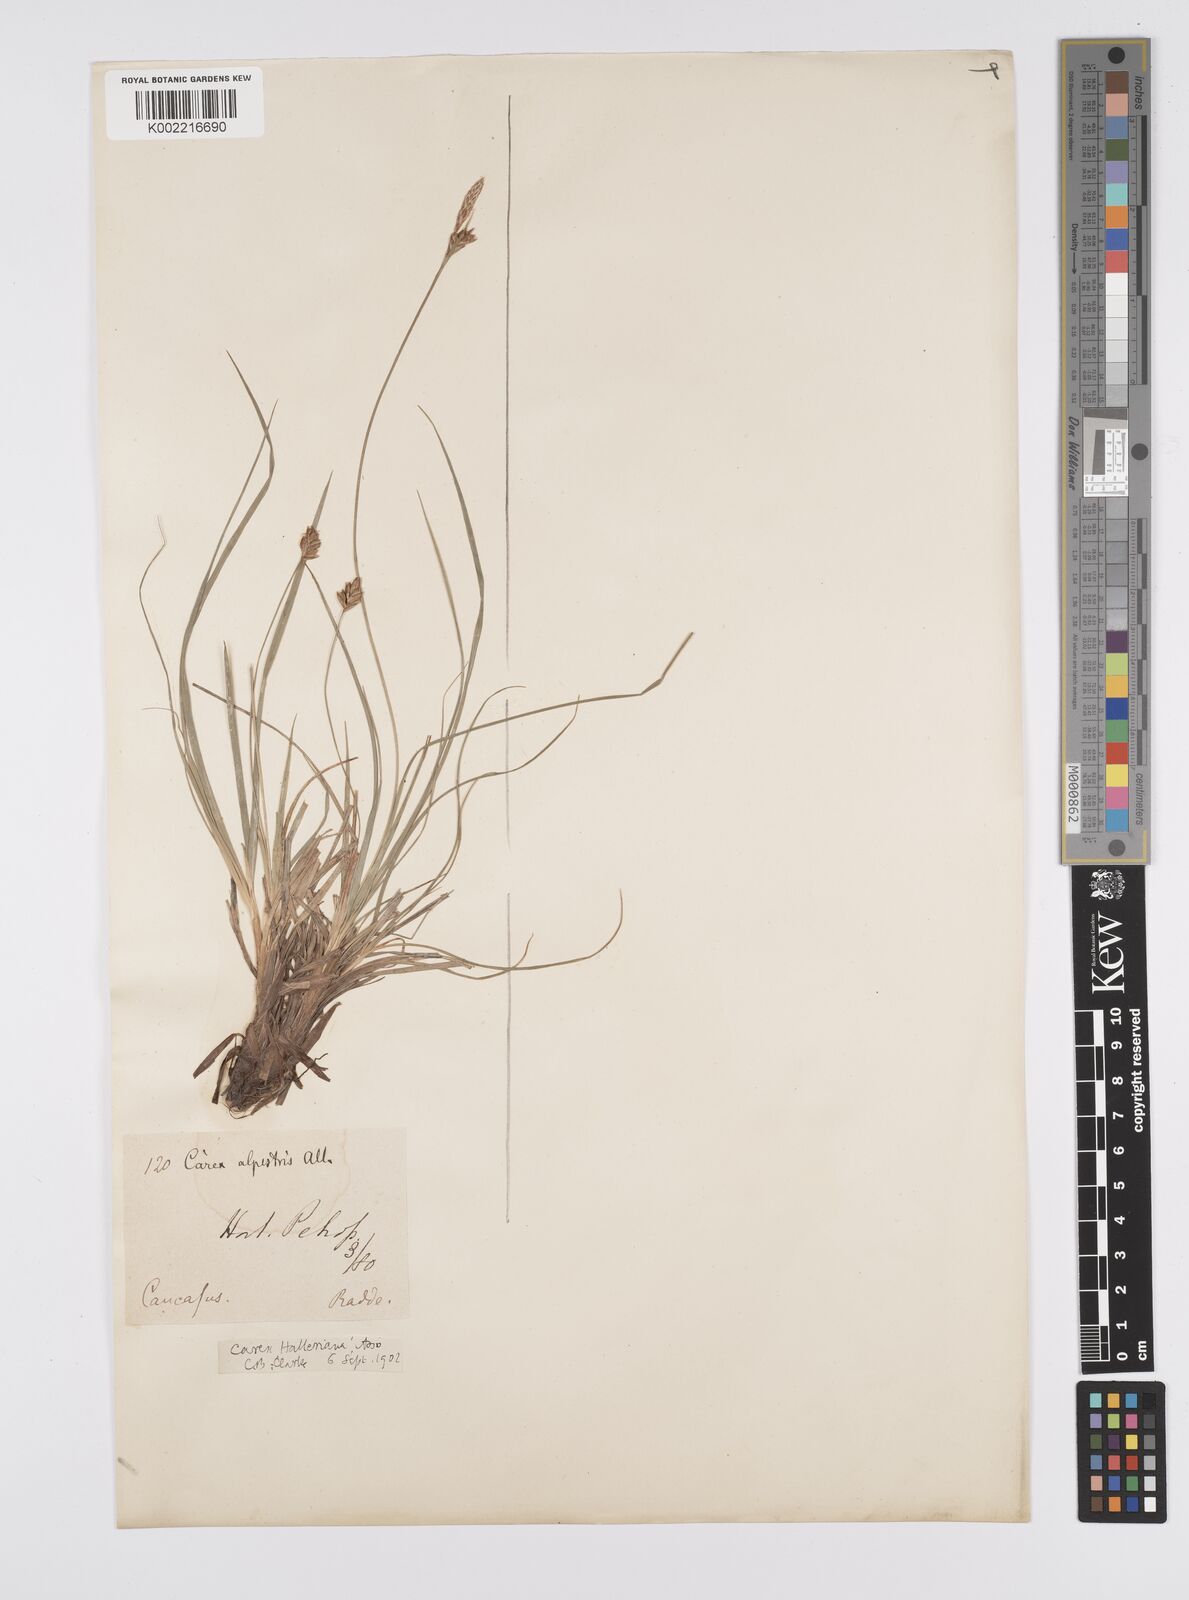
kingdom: Plantae
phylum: Tracheophyta
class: Liliopsida
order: Poales
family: Cyperaceae
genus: Carex
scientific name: Carex halleriana
